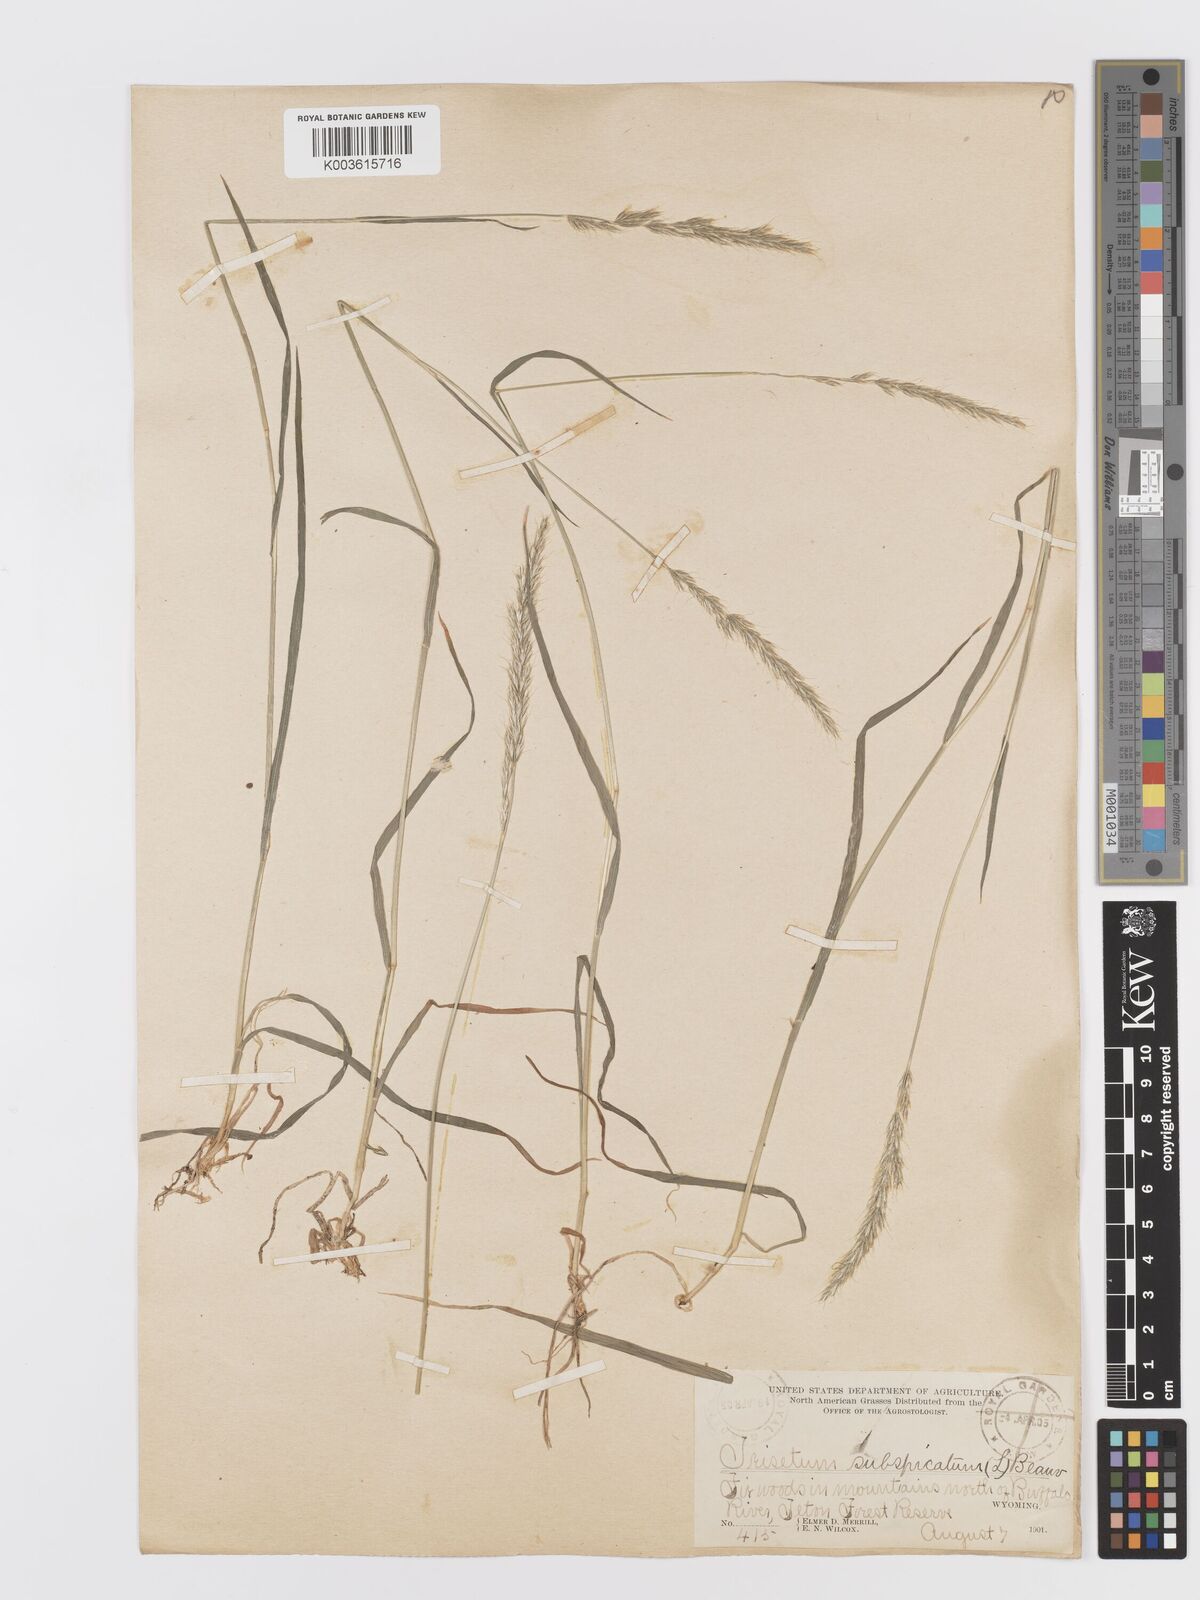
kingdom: Plantae
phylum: Tracheophyta
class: Liliopsida
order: Poales
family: Poaceae
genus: Koeleria
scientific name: Koeleria spicata
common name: Mountain trisetum
